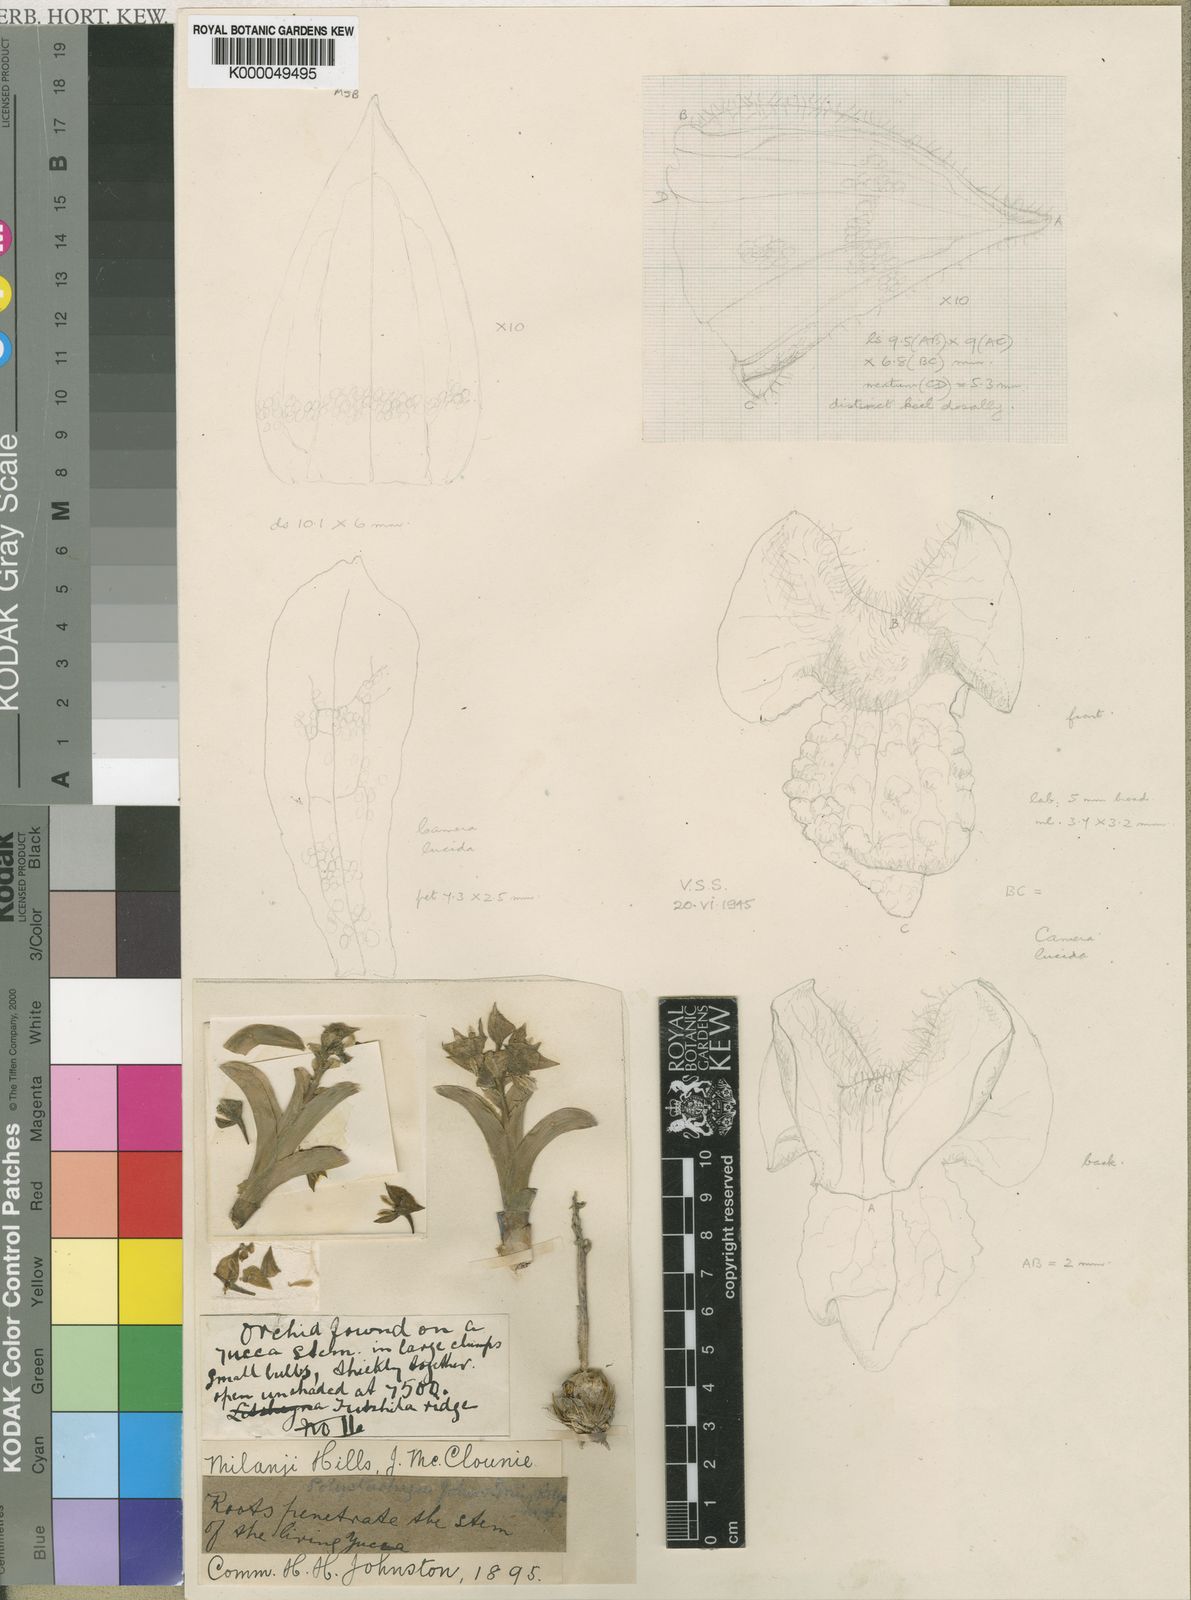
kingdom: Plantae
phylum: Tracheophyta
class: Liliopsida
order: Asparagales
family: Orchidaceae
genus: Polystachya
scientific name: Polystachya johnstonii
